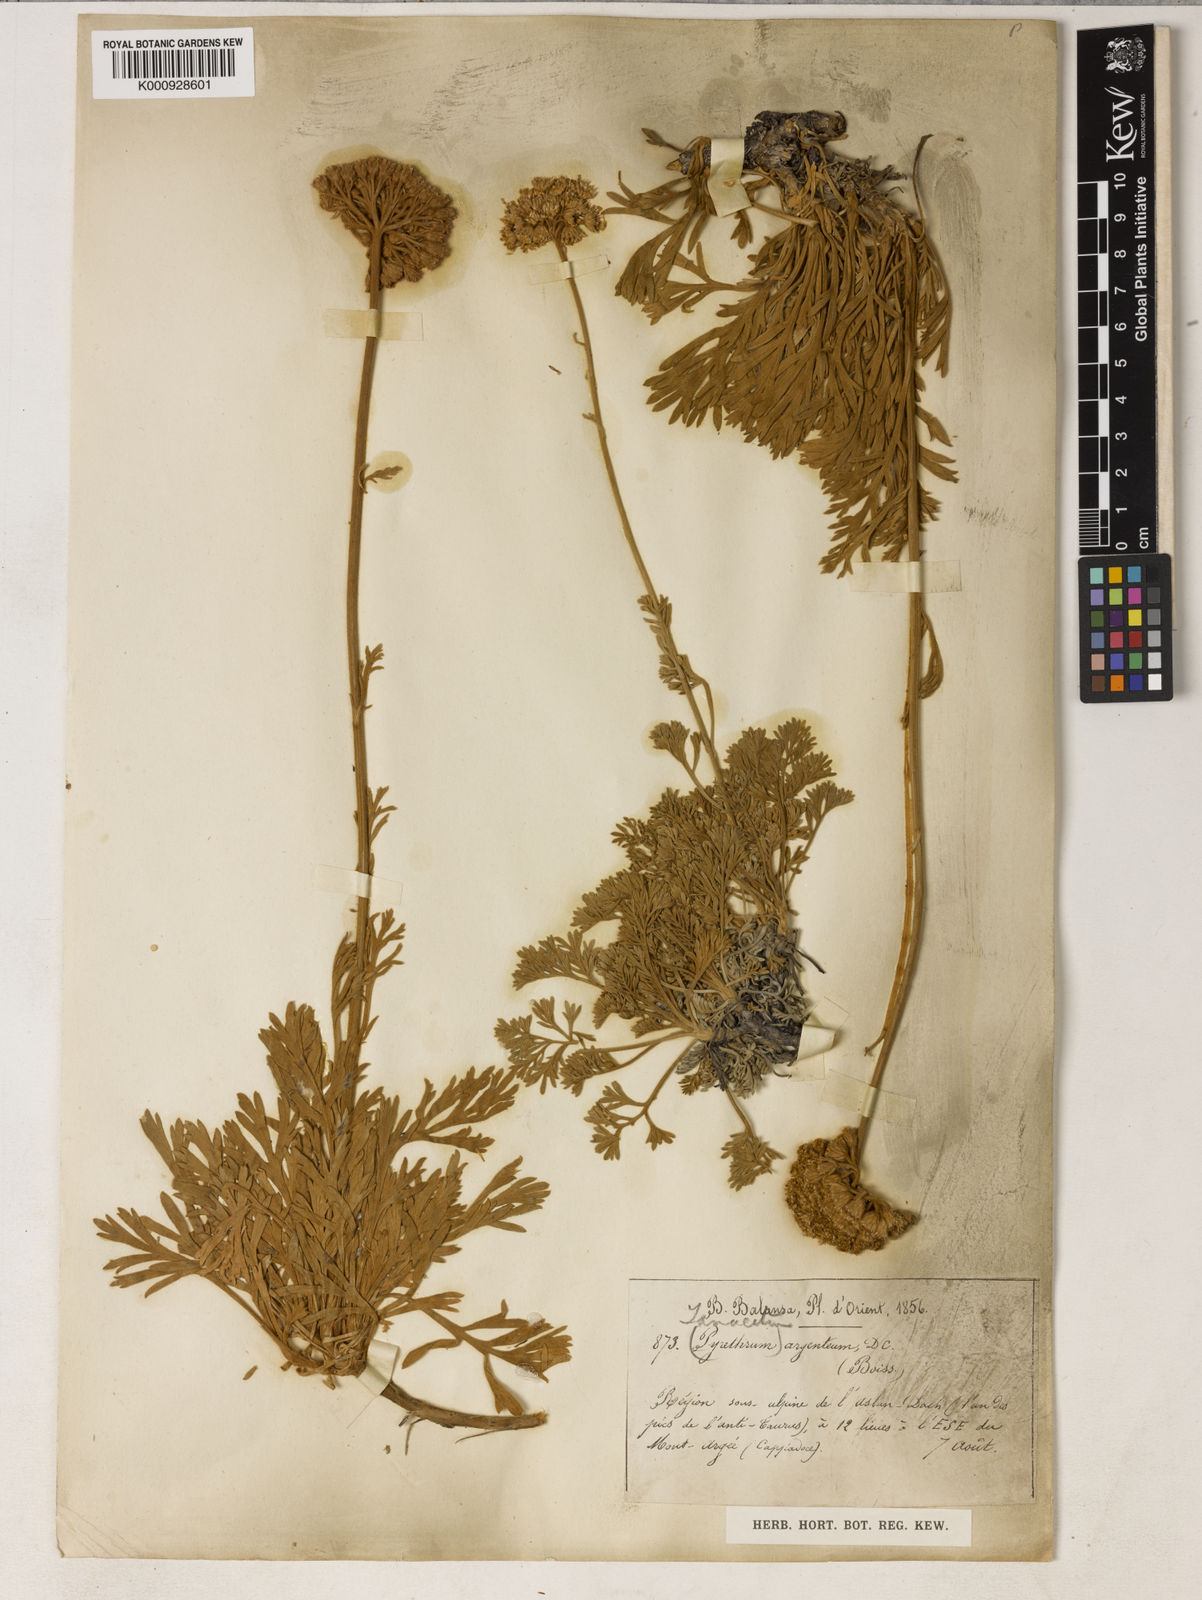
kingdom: Plantae
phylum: Tracheophyta
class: Magnoliopsida
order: Asterales
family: Asteraceae
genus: Tanacetum
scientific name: Tanacetum argenteum
